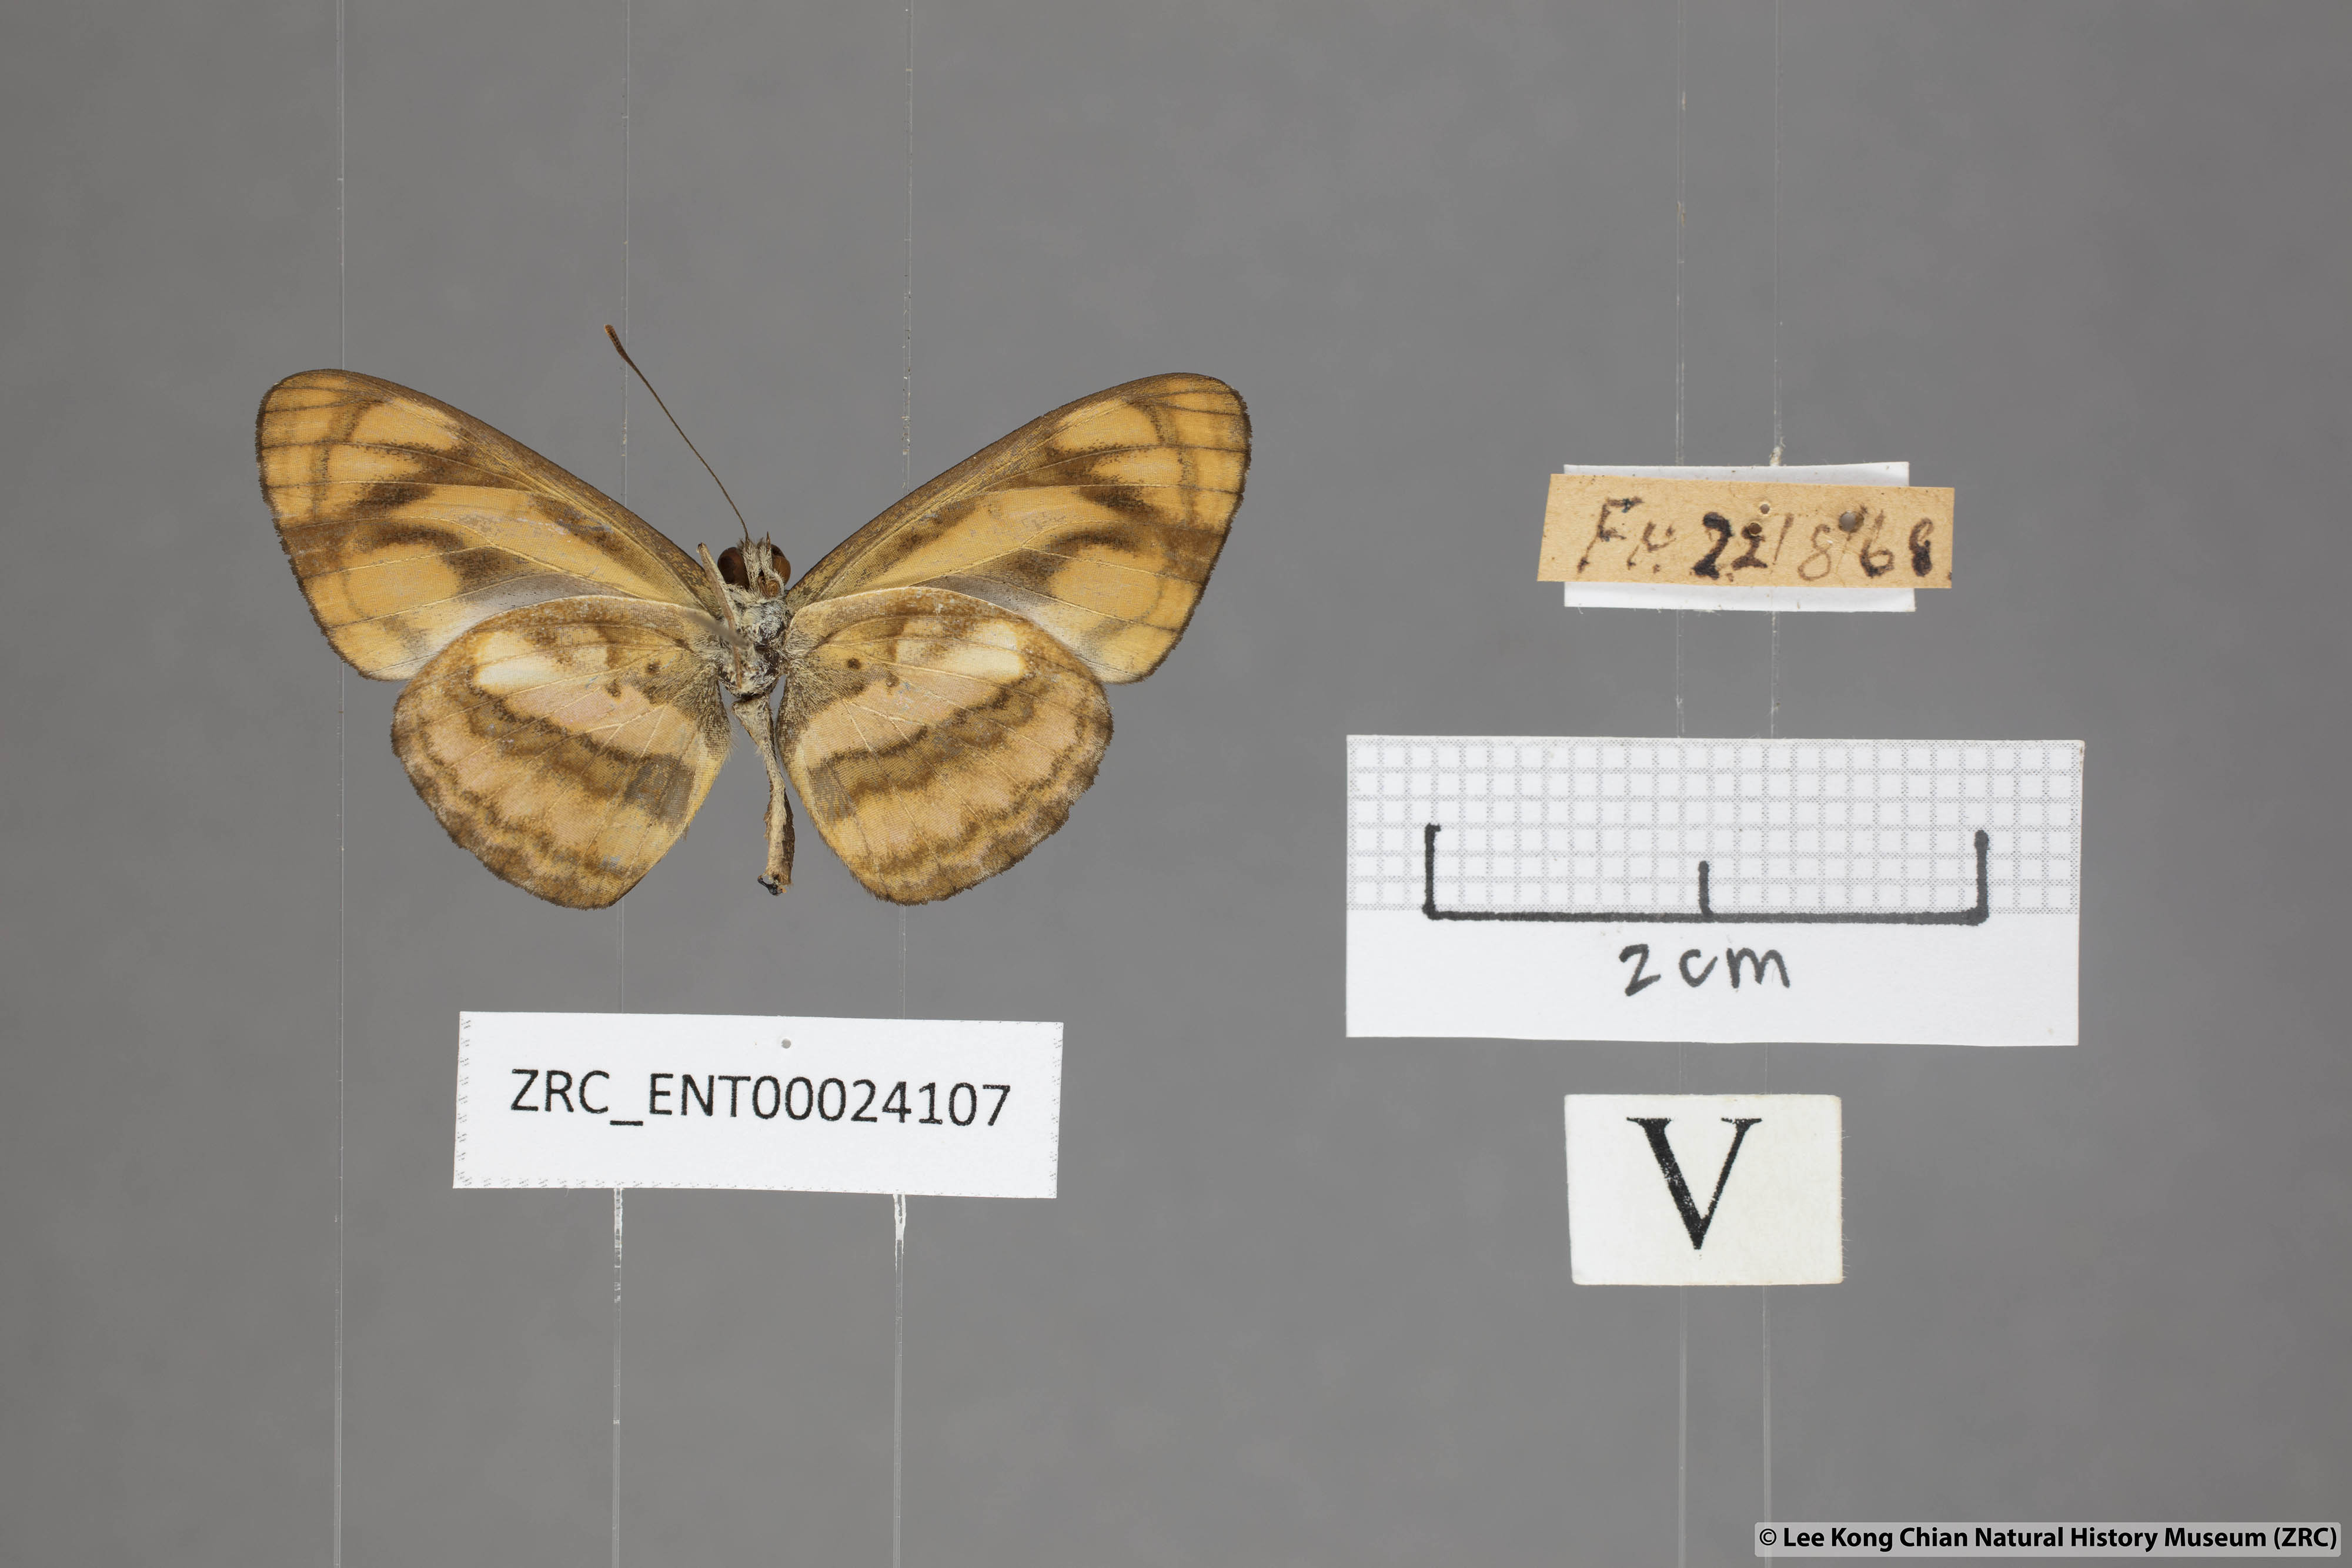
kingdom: Animalia
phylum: Arthropoda
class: Insecta
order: Lepidoptera
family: Nymphalidae
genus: Pantoporia
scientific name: Pantoporia aurelia
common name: Baby lascar
